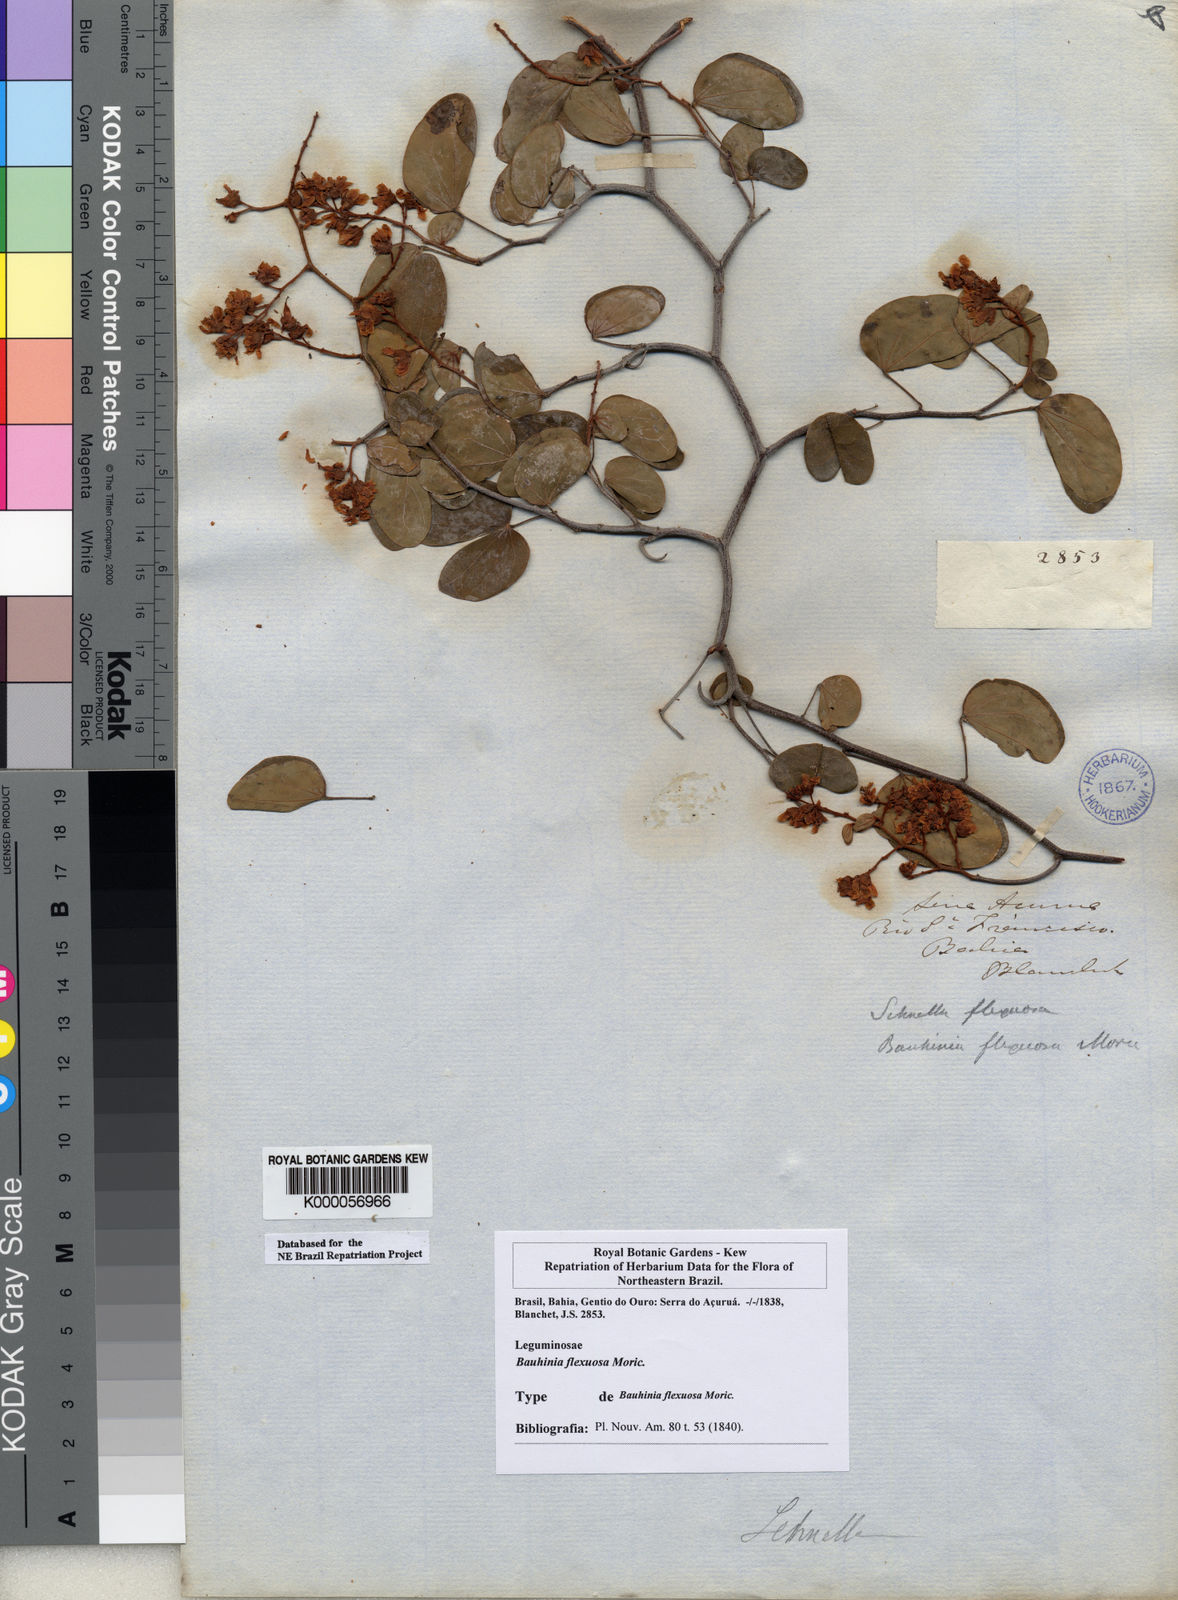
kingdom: Plantae
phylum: Tracheophyta
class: Magnoliopsida
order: Fabales
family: Fabaceae
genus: Schnella
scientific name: Schnella flexuosa
